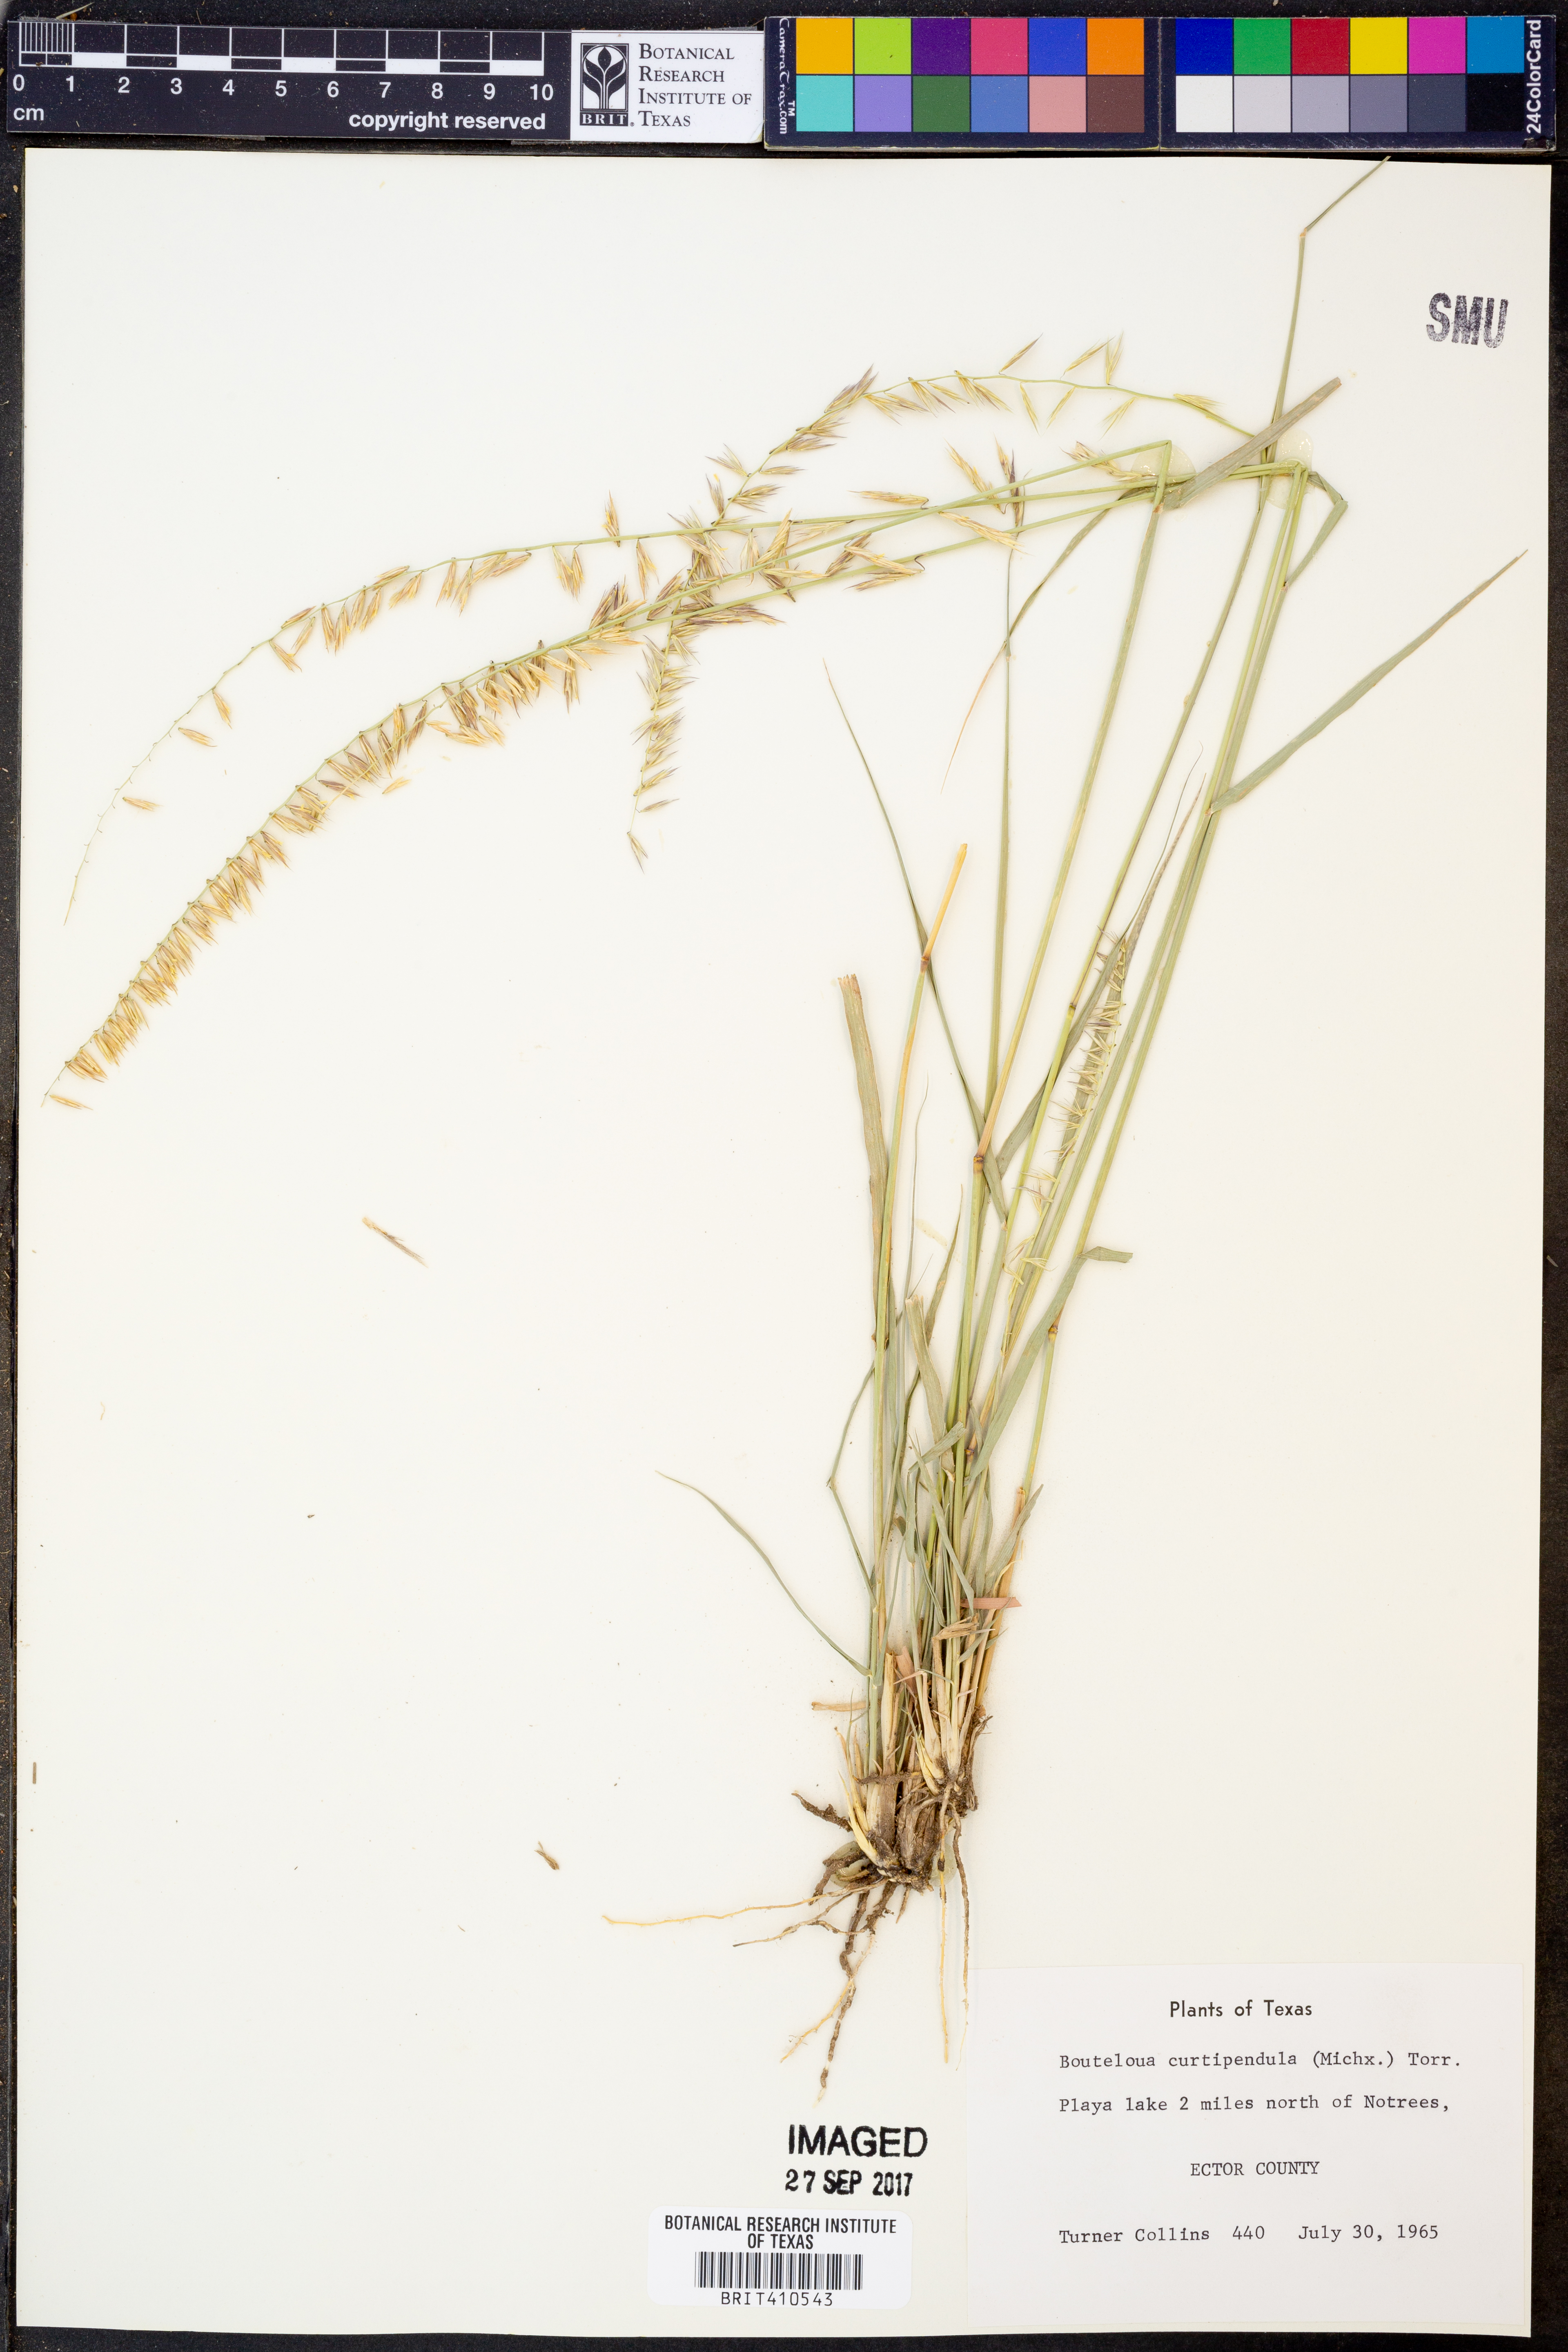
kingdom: Plantae
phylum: Tracheophyta
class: Liliopsida
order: Poales
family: Poaceae
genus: Bouteloua
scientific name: Bouteloua curtipendula
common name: Side-oats grama
